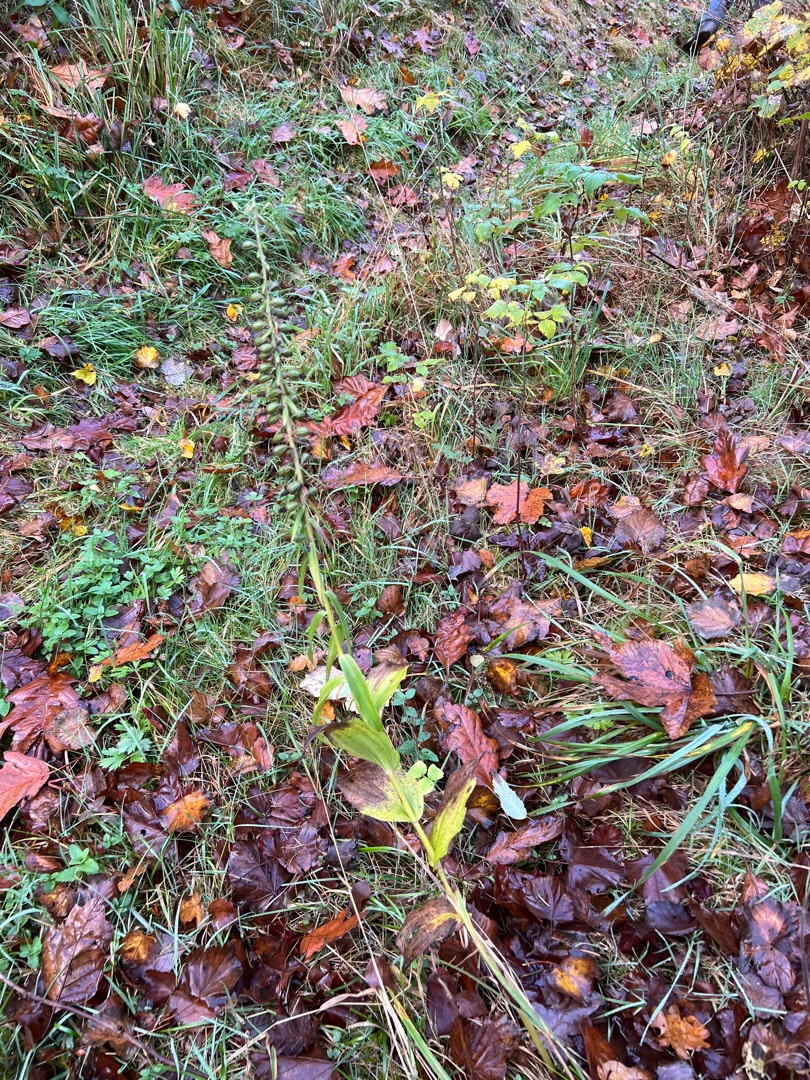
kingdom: Plantae
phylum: Tracheophyta
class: Liliopsida
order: Asparagales
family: Orchidaceae
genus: Epipactis
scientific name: Epipactis helleborine
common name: Skov-hullæbe
